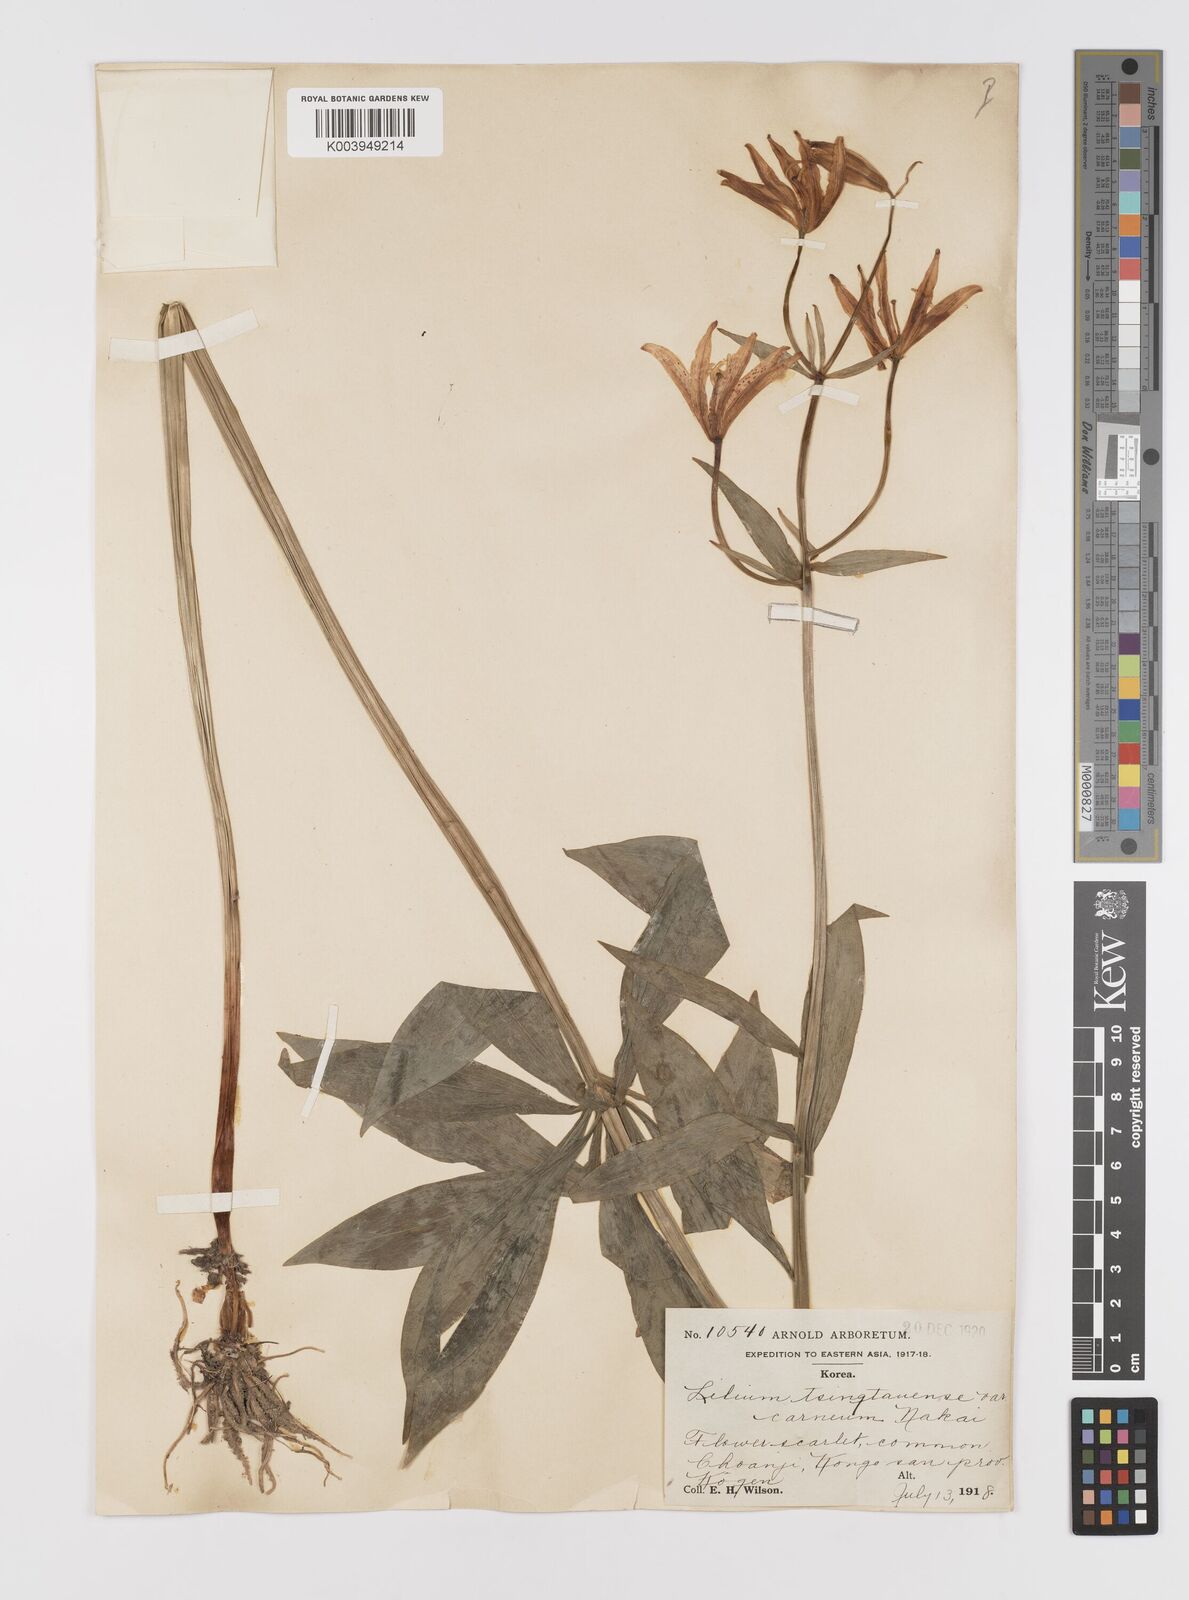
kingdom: Plantae
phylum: Tracheophyta
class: Liliopsida
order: Liliales
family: Liliaceae
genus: Lilium
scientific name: Lilium tsingtauense
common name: Korean wheel lily
